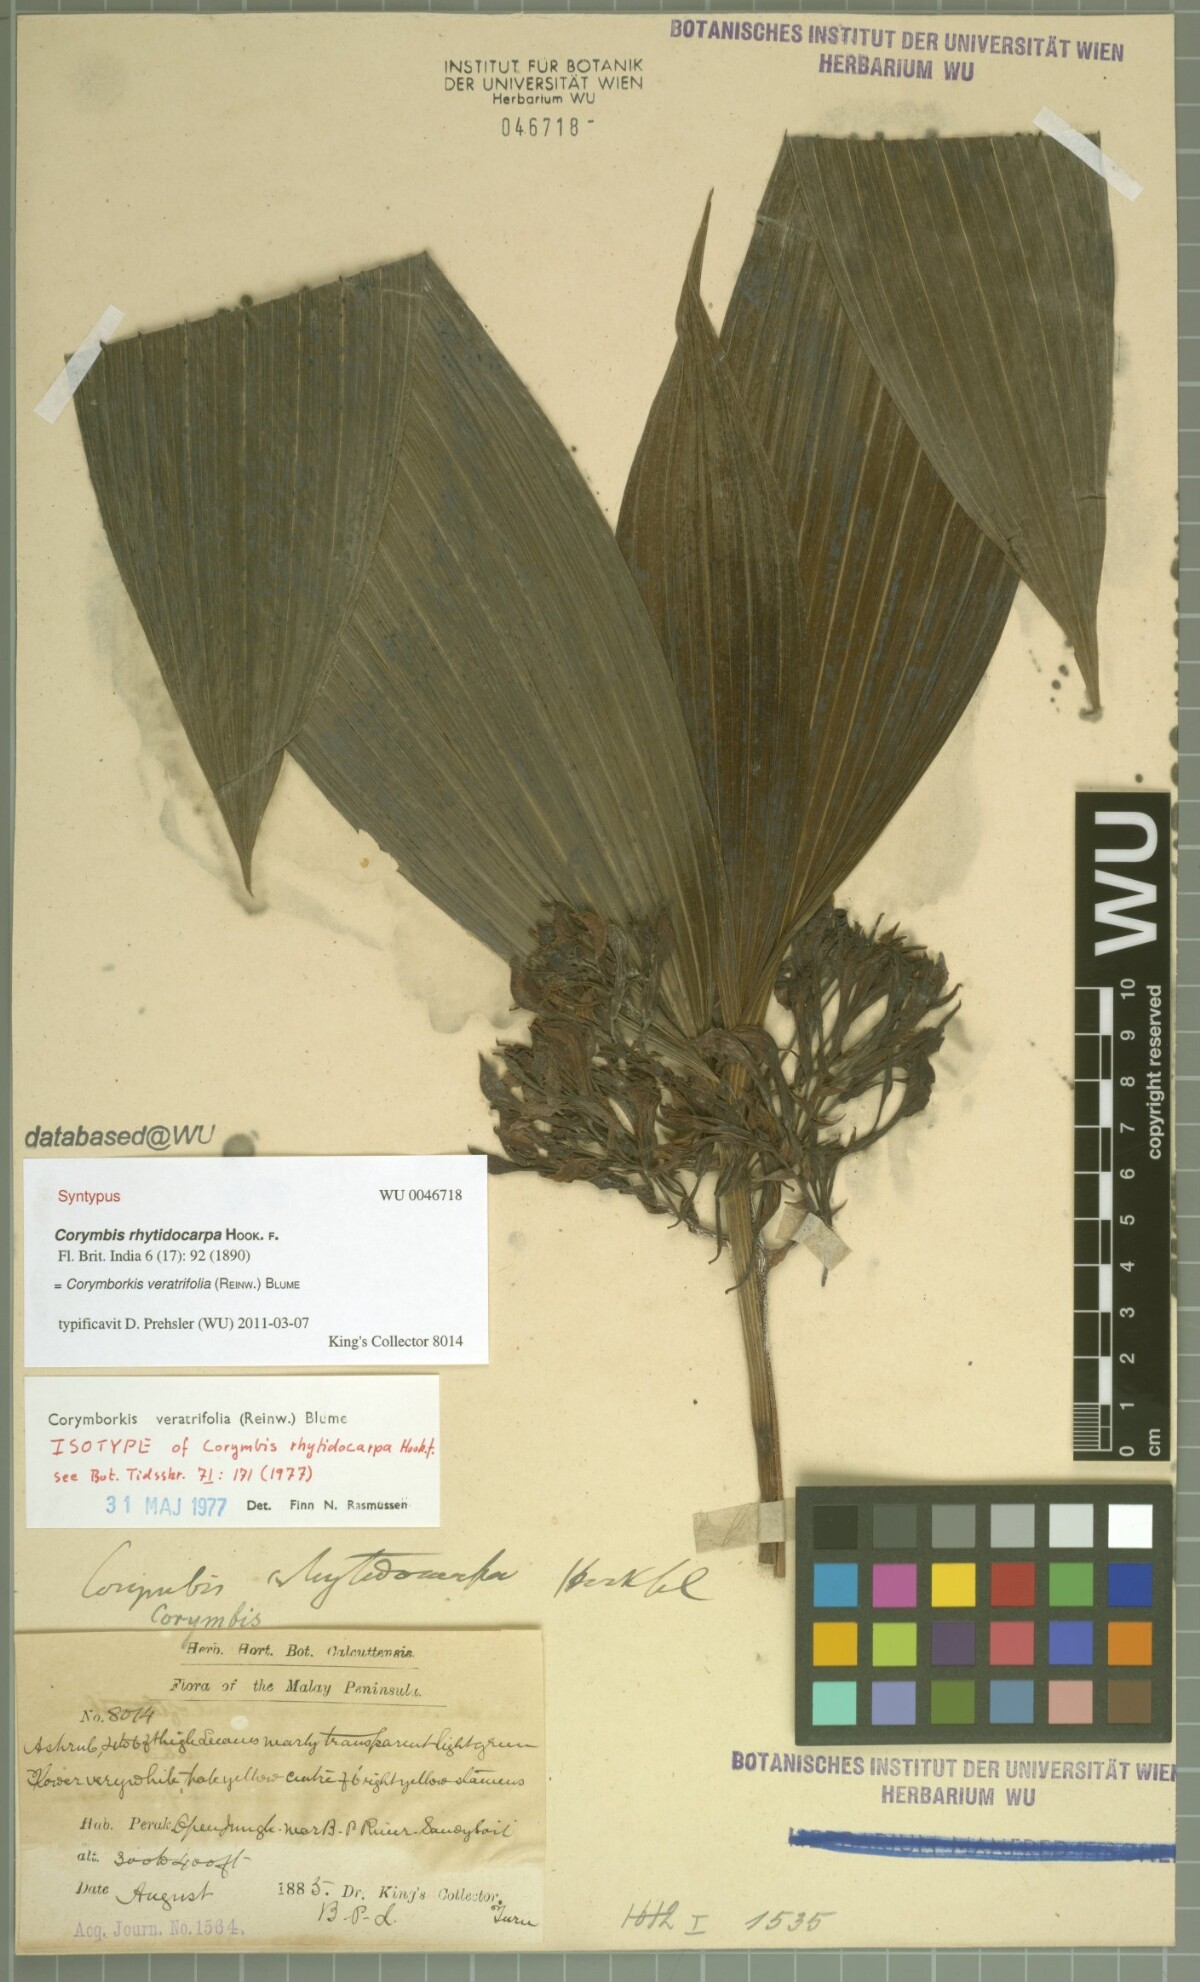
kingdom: Plantae
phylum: Tracheophyta
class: Liliopsida
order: Asparagales
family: Orchidaceae
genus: Corymborkis
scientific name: Corymborkis veratrifolia
